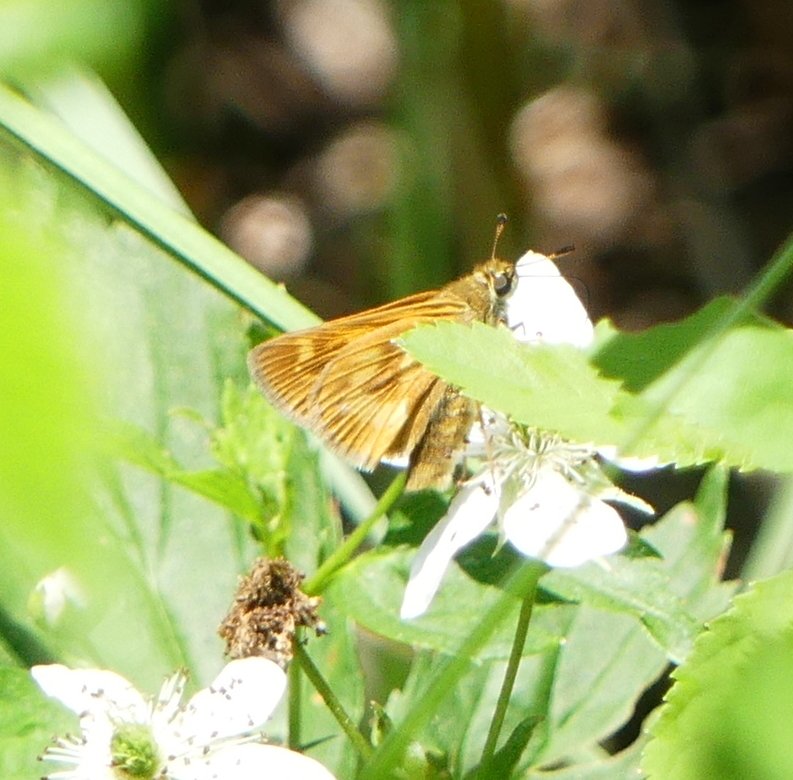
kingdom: Animalia
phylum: Arthropoda
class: Insecta
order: Lepidoptera
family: Hesperiidae
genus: Polites
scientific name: Polites
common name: Long Dash Skipper
